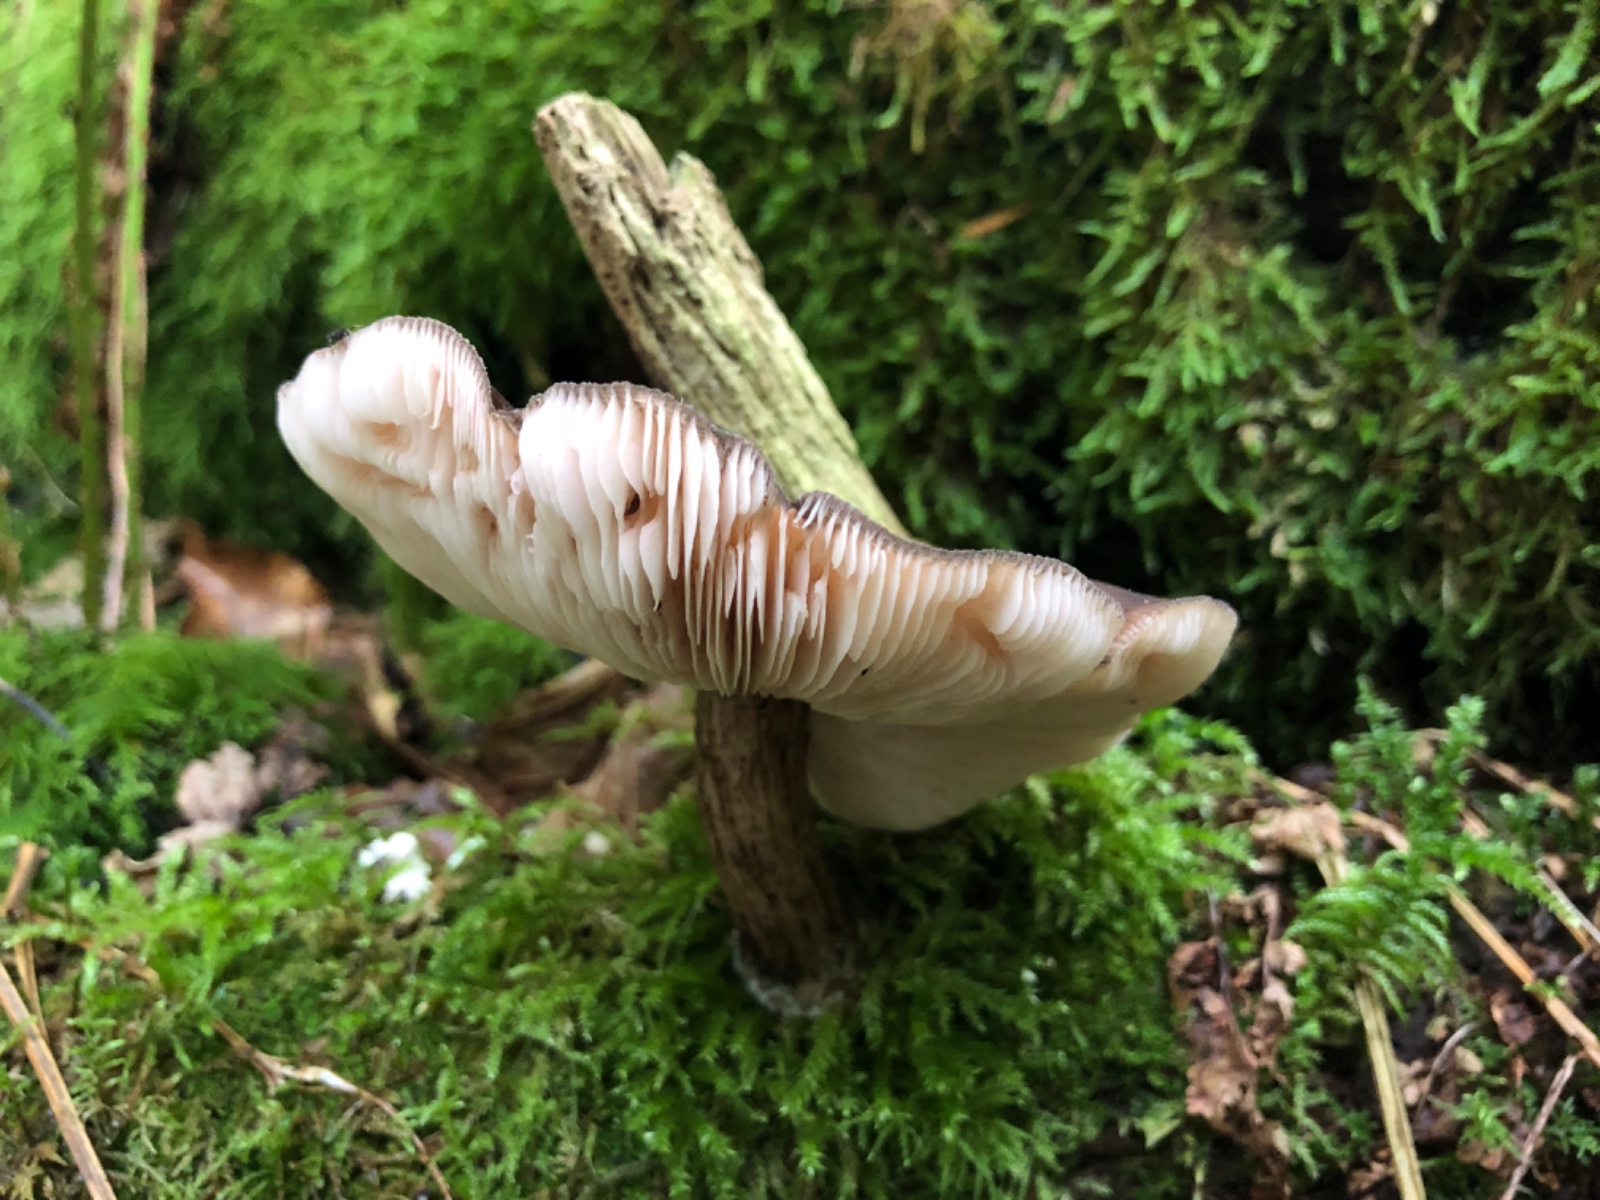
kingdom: Fungi
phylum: Basidiomycota
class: Agaricomycetes
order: Agaricales
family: Pluteaceae
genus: Pluteus
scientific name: Pluteus
